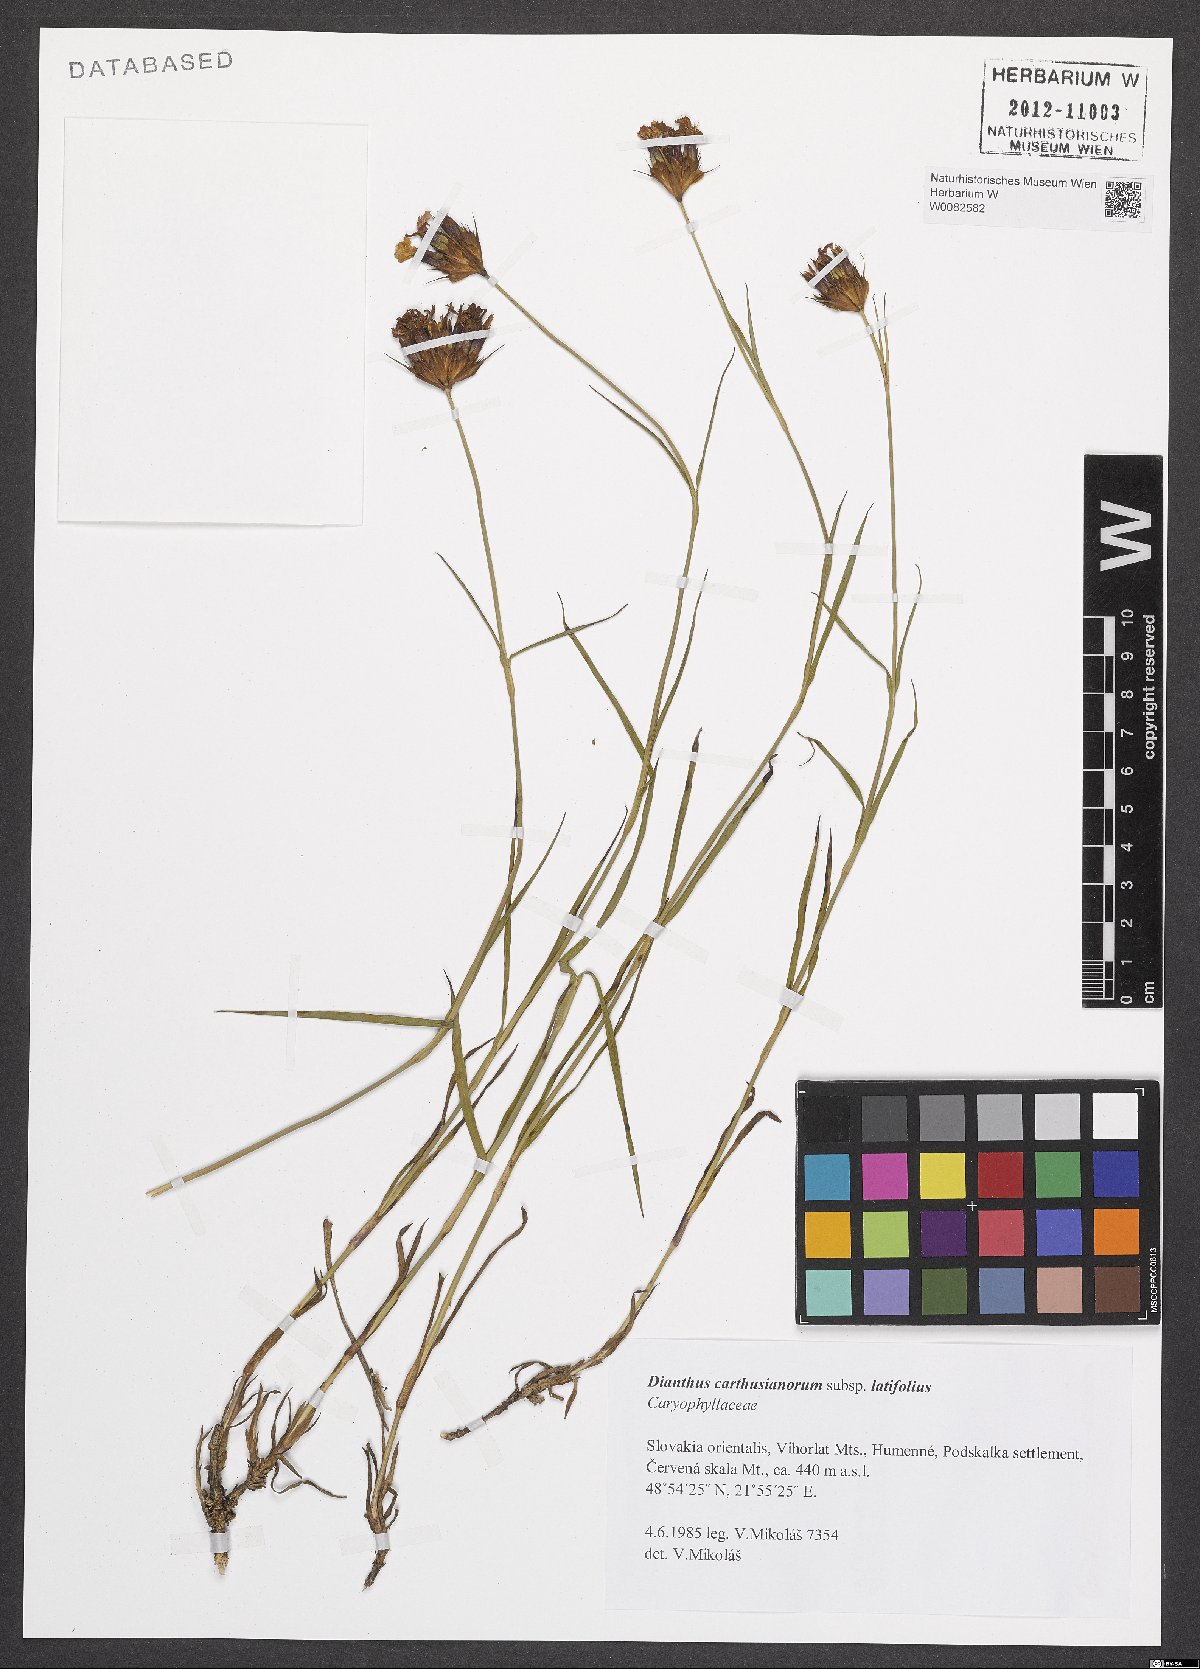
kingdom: Plantae
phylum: Tracheophyta
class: Magnoliopsida
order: Caryophyllales
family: Caryophyllaceae
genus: Dianthus
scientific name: Dianthus carthusianorum
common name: Carthusian pink
